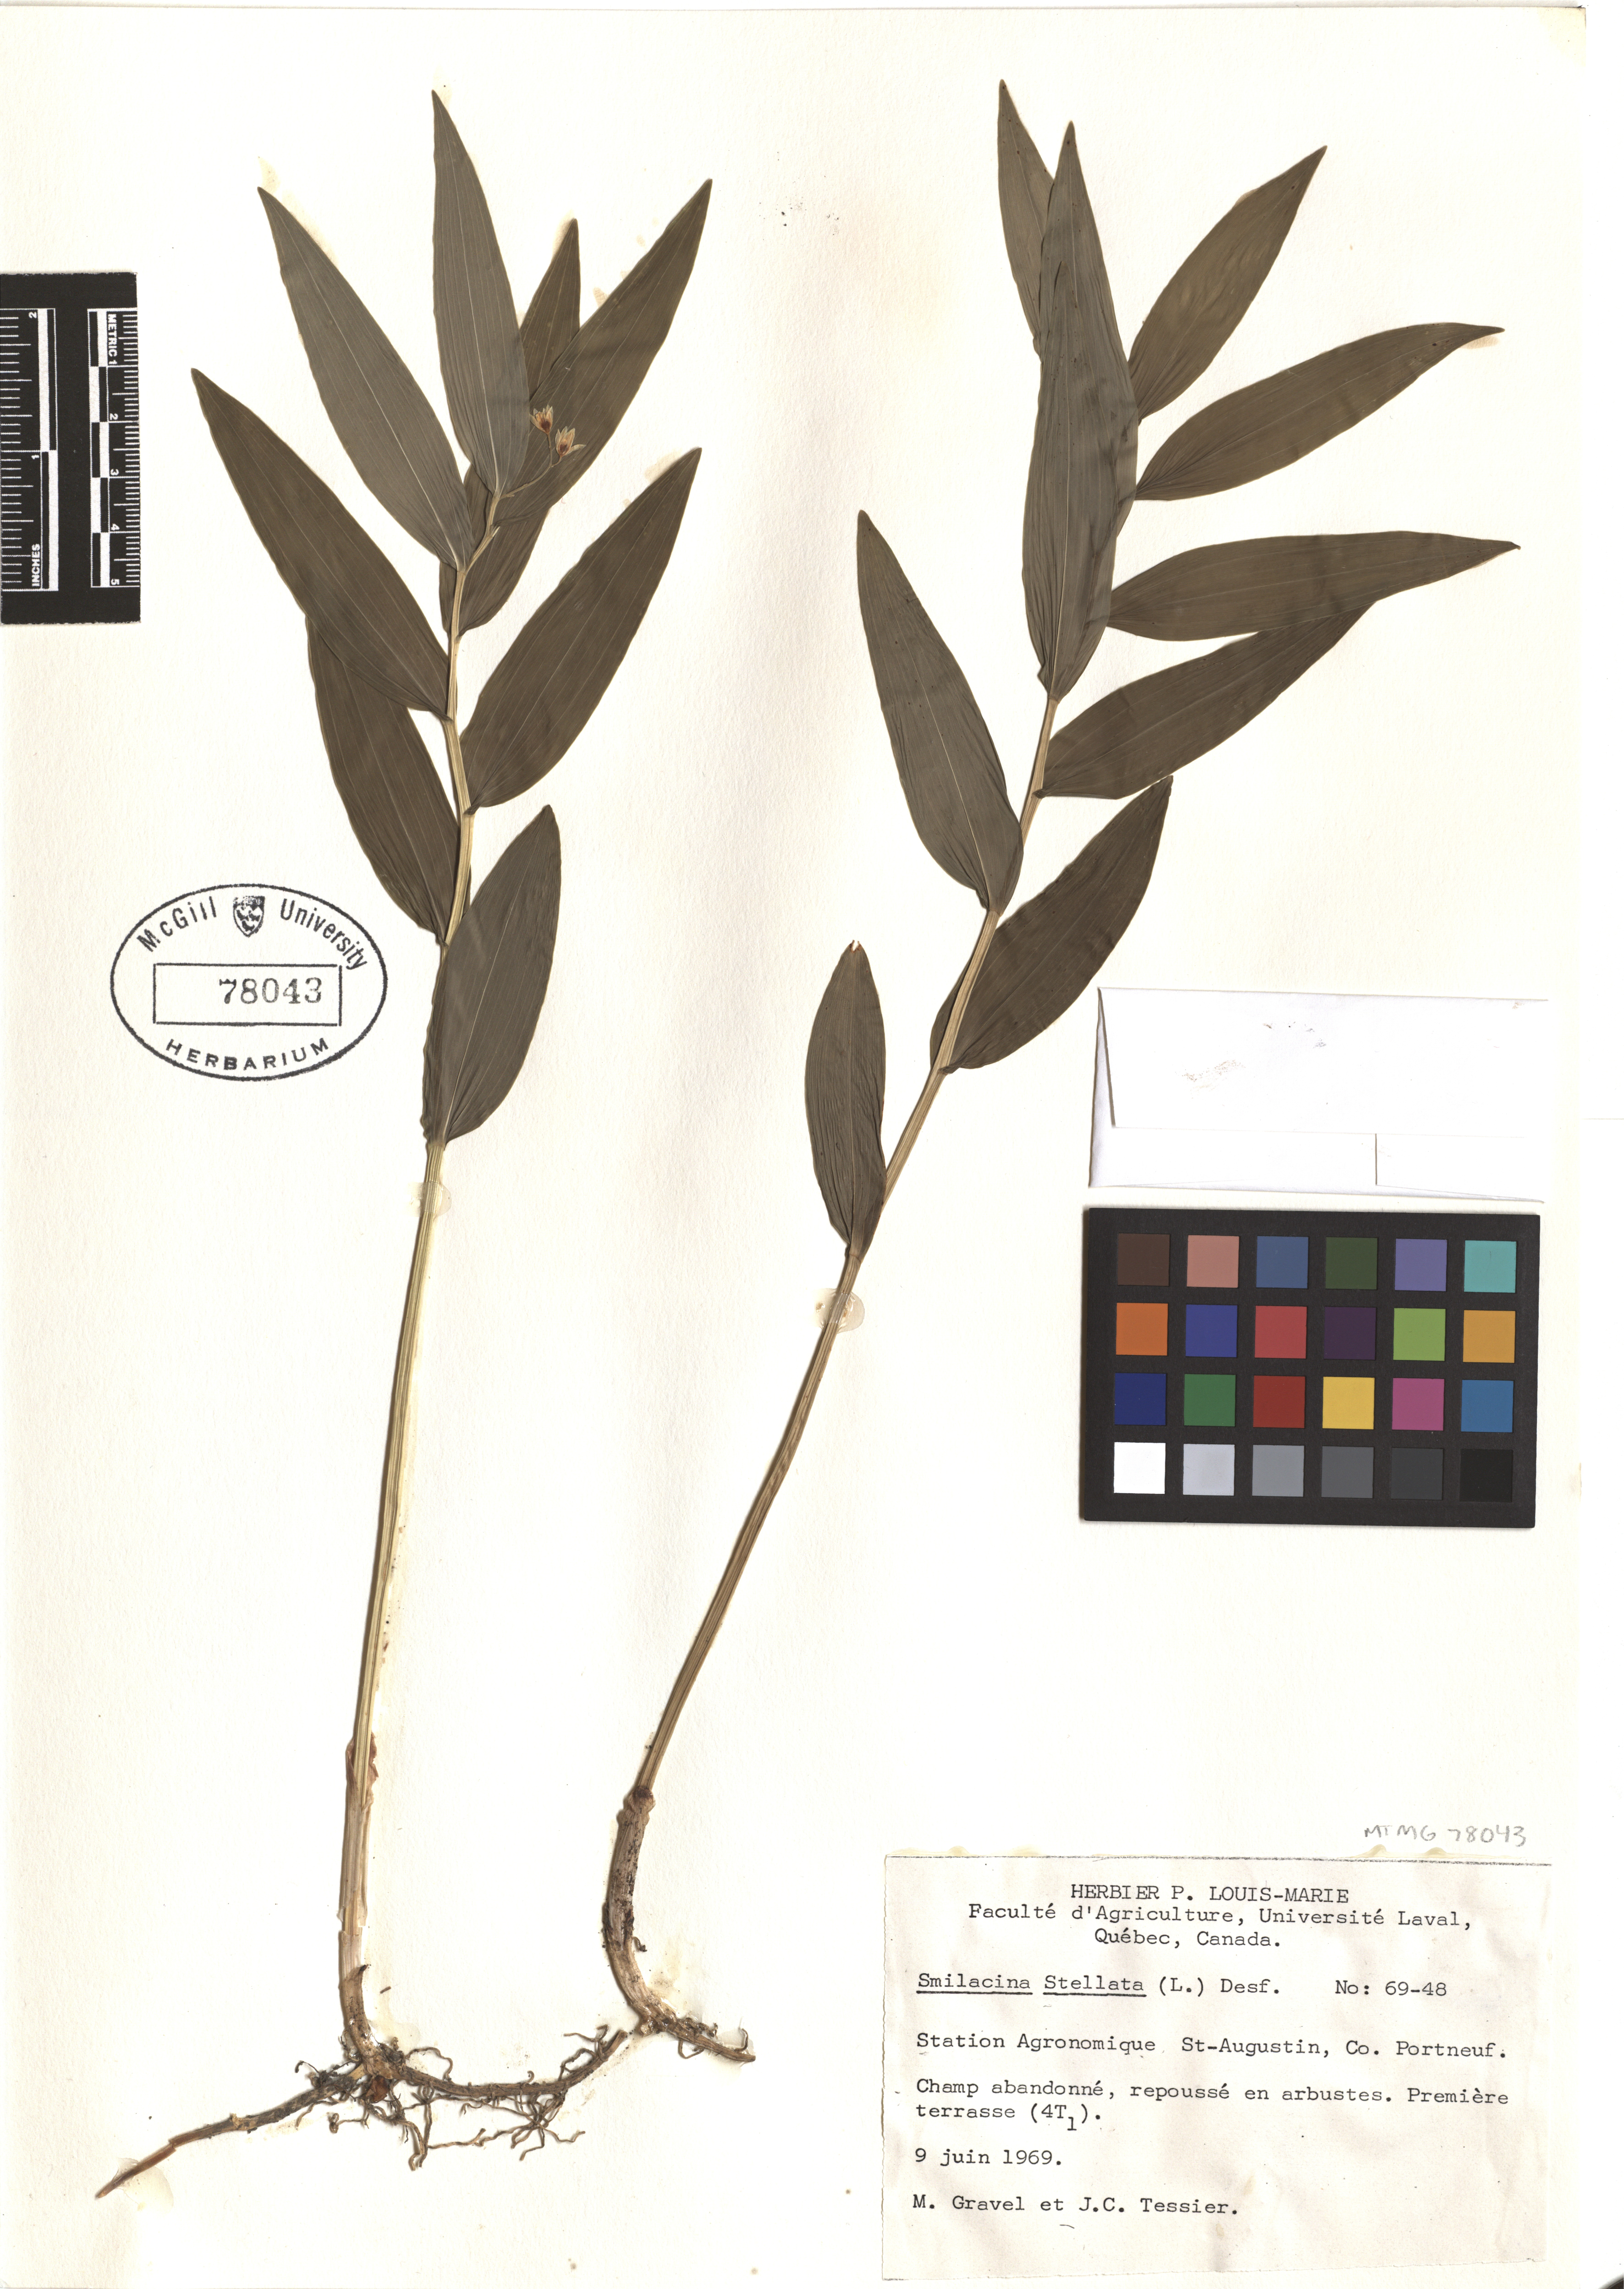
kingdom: Plantae
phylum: Tracheophyta
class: Liliopsida
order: Asparagales
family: Asparagaceae
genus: Maianthemum
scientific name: Maianthemum stellatum
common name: Little false solomon's seal
